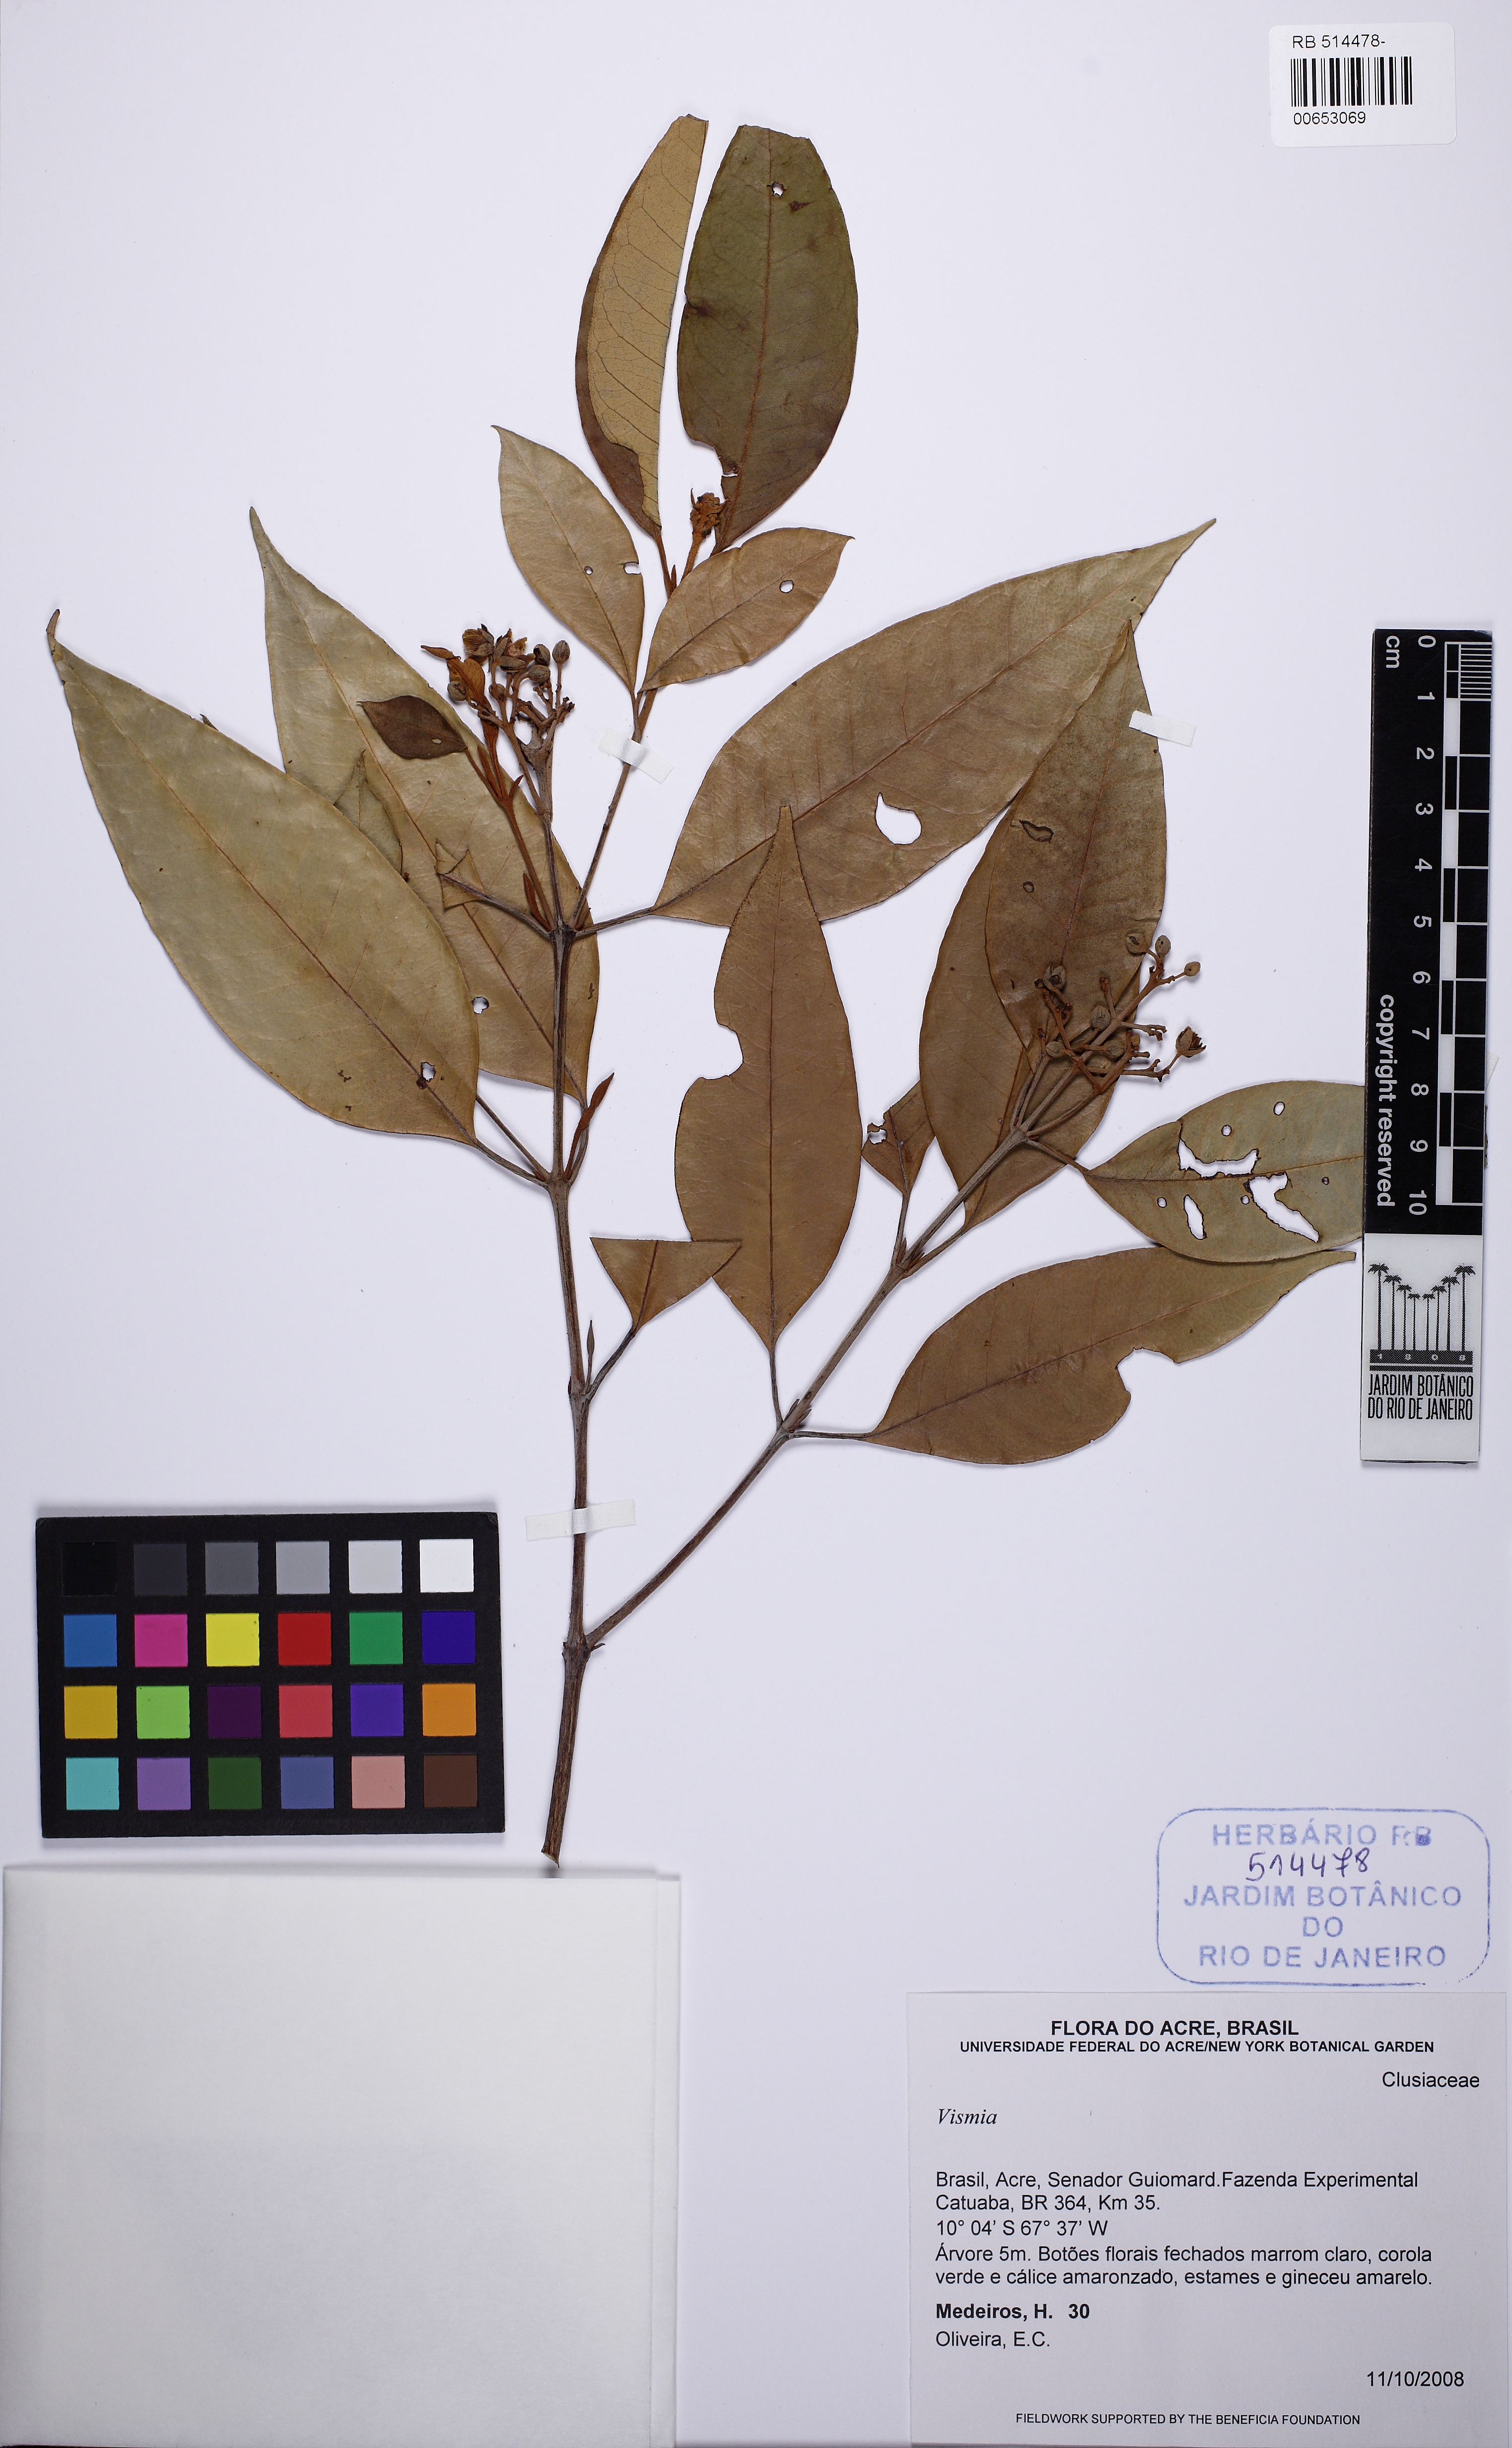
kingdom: Plantae
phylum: Tracheophyta
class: Magnoliopsida
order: Malpighiales
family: Hypericaceae
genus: Vismia
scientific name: Vismia gracilis
